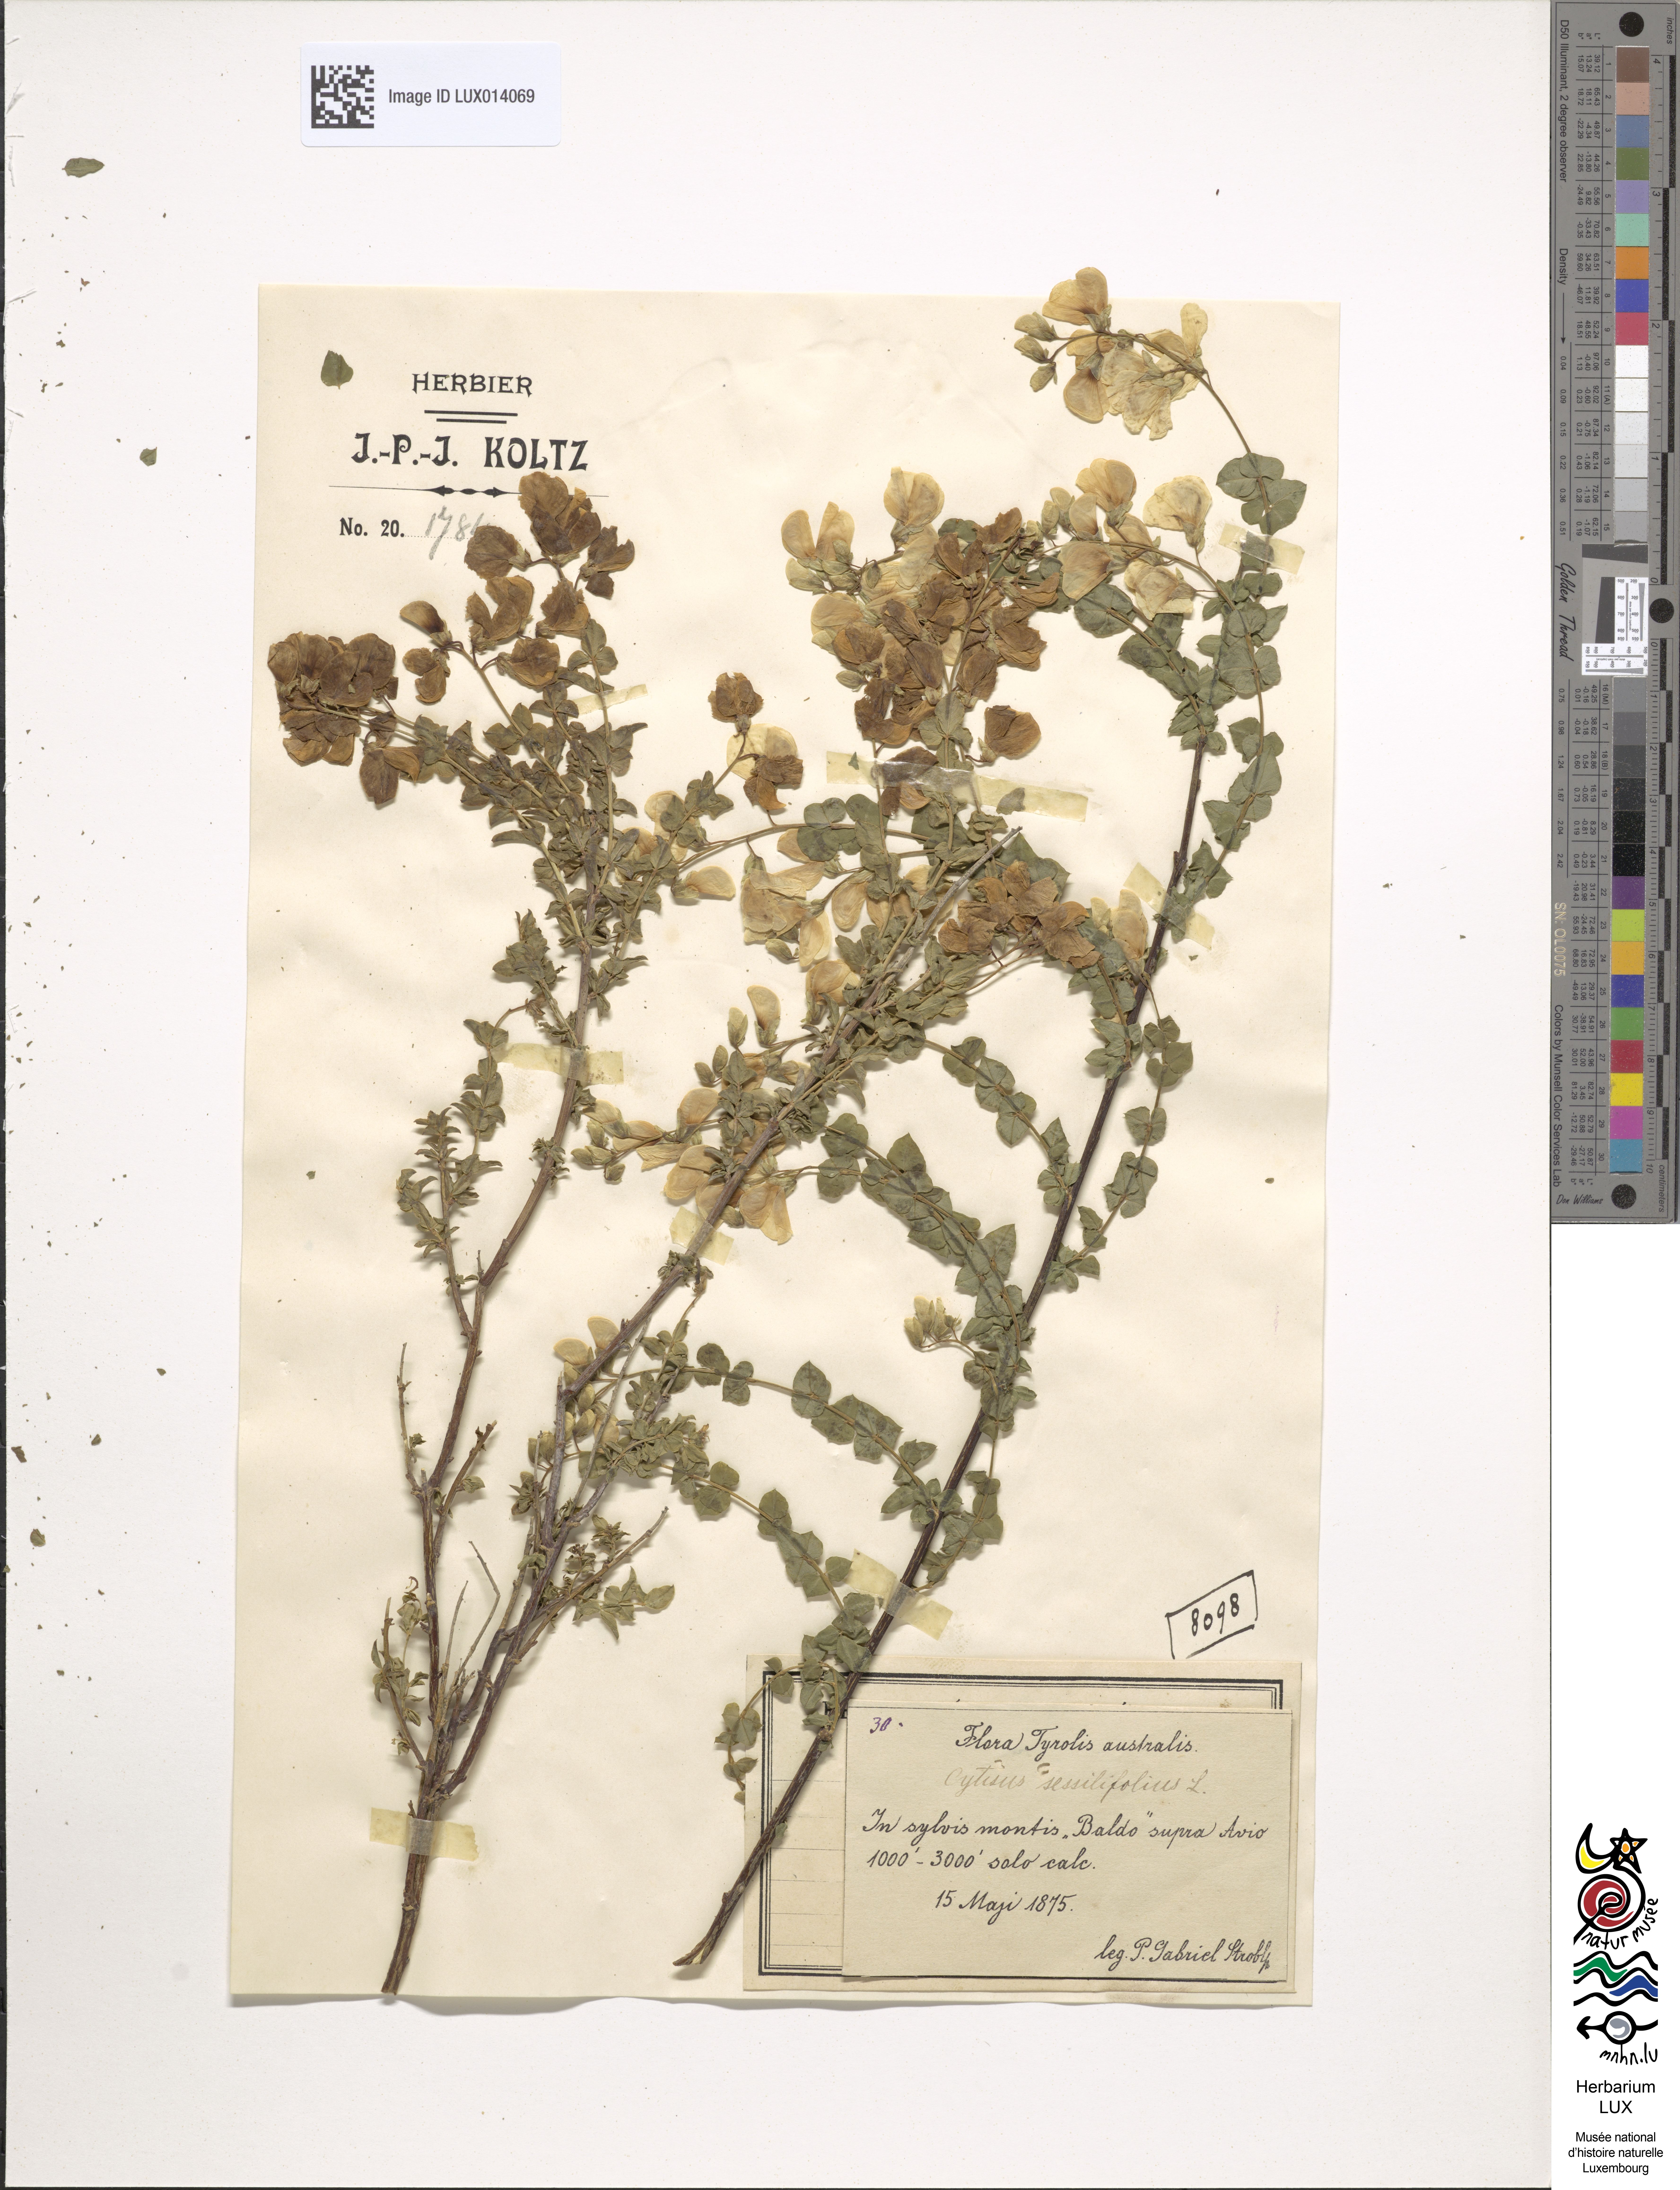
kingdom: Plantae
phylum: Tracheophyta
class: Magnoliopsida
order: Fabales
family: Fabaceae
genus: Cytisophyllum
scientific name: Cytisophyllum sessilifolium
